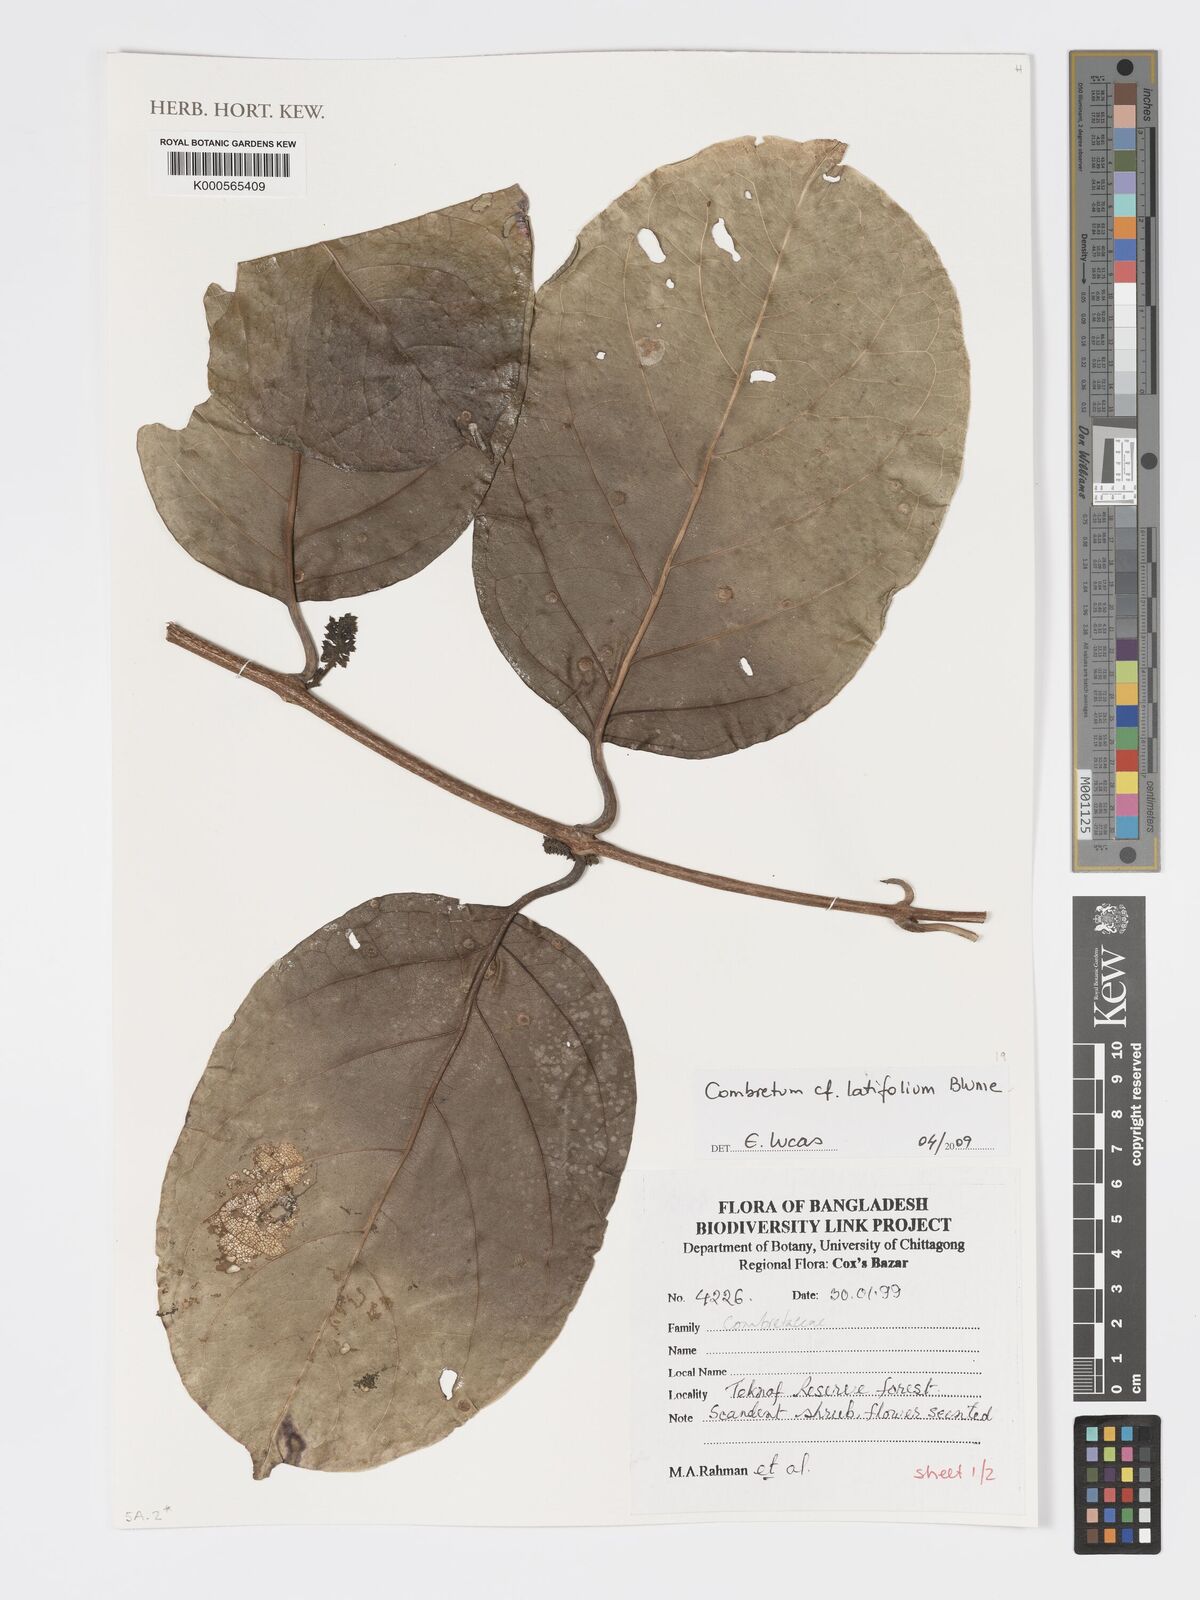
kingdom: Plantae
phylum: Tracheophyta
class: Magnoliopsida
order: Myrtales
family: Combretaceae
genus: Combretum
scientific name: Combretum latifolium
